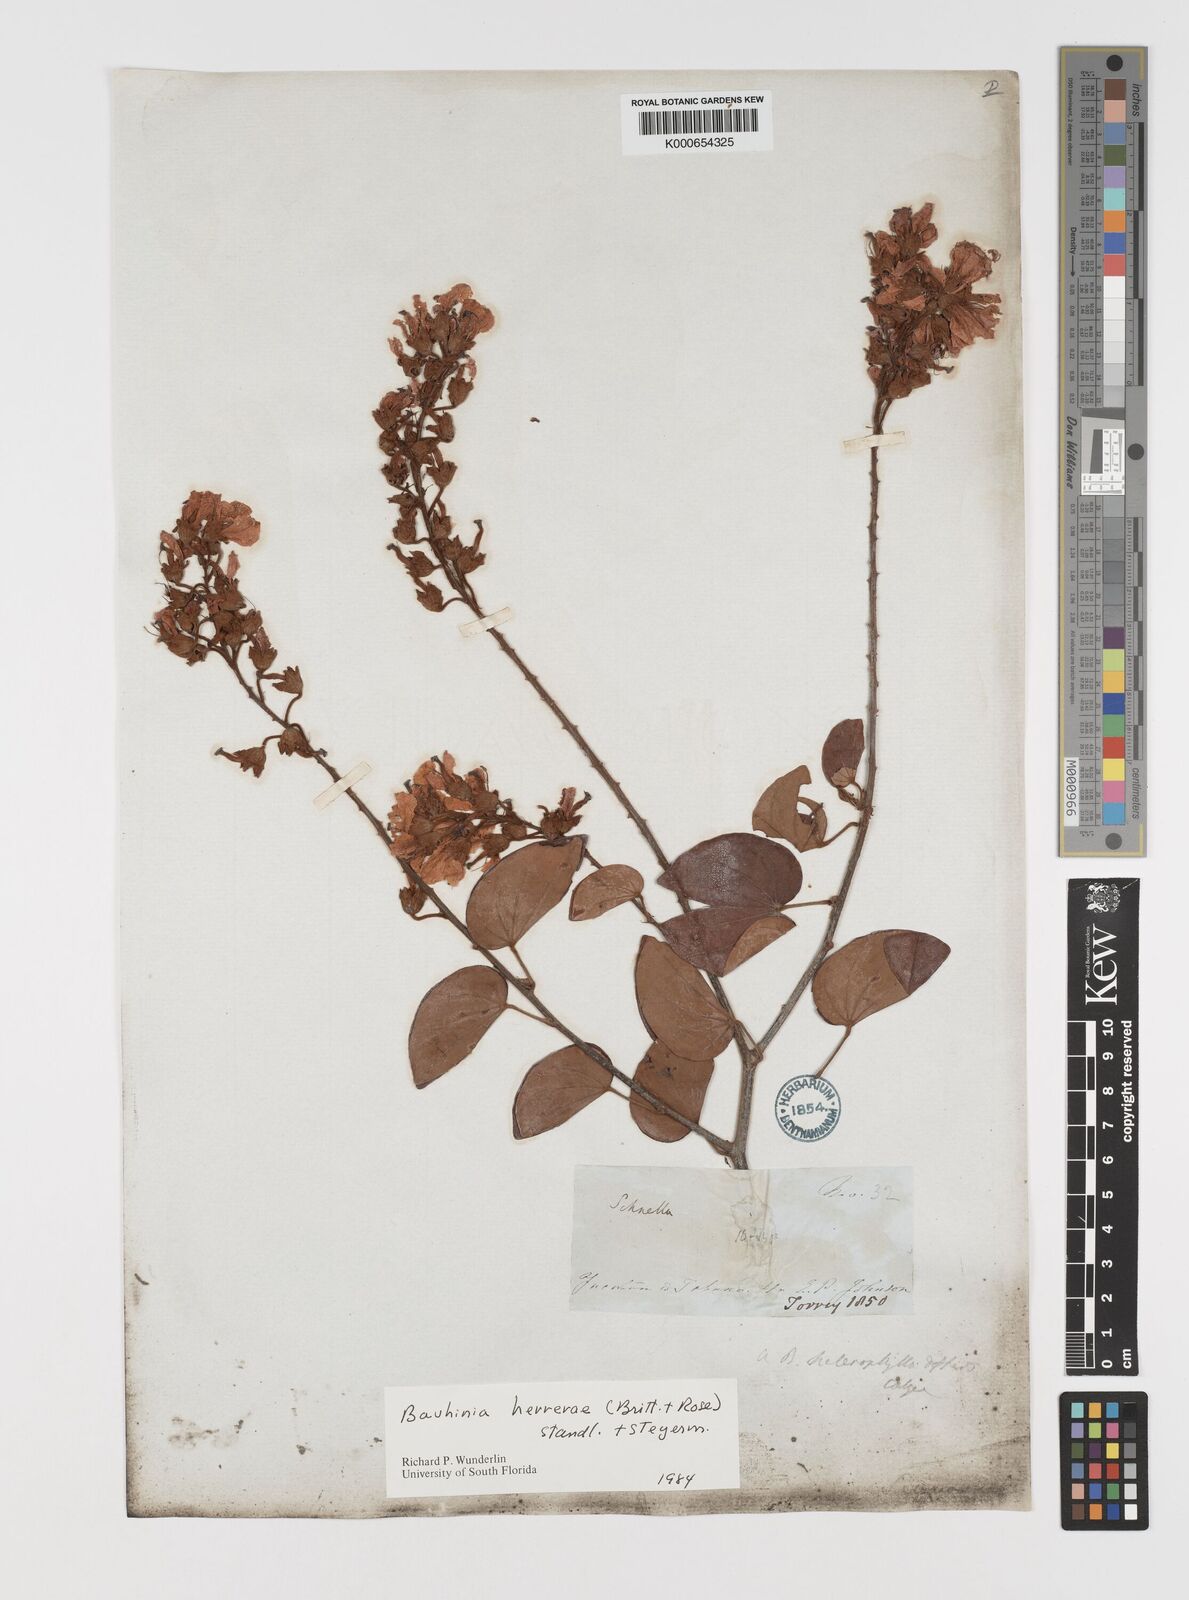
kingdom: Plantae
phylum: Tracheophyta
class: Magnoliopsida
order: Fabales
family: Fabaceae
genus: Schnella
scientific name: Schnella herrerae
